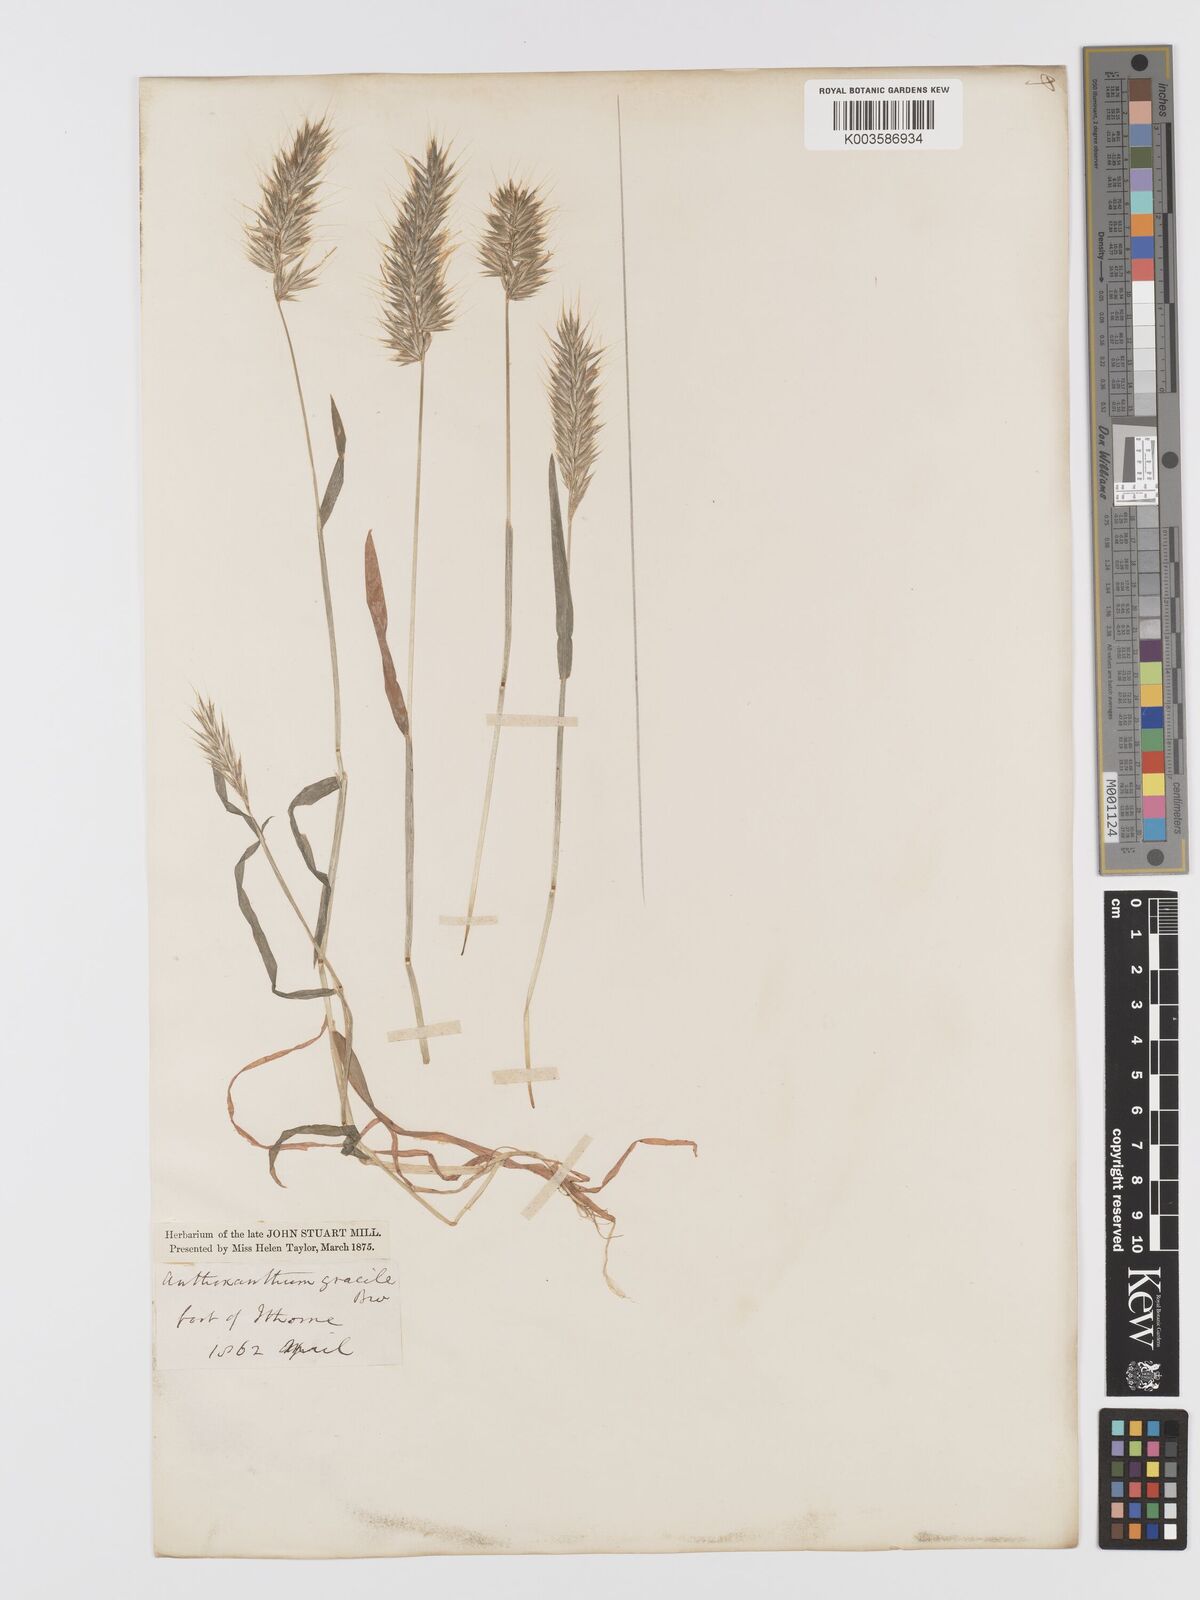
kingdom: Plantae
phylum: Tracheophyta
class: Liliopsida
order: Poales
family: Poaceae
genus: Anthoxanthum
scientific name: Anthoxanthum gracile
